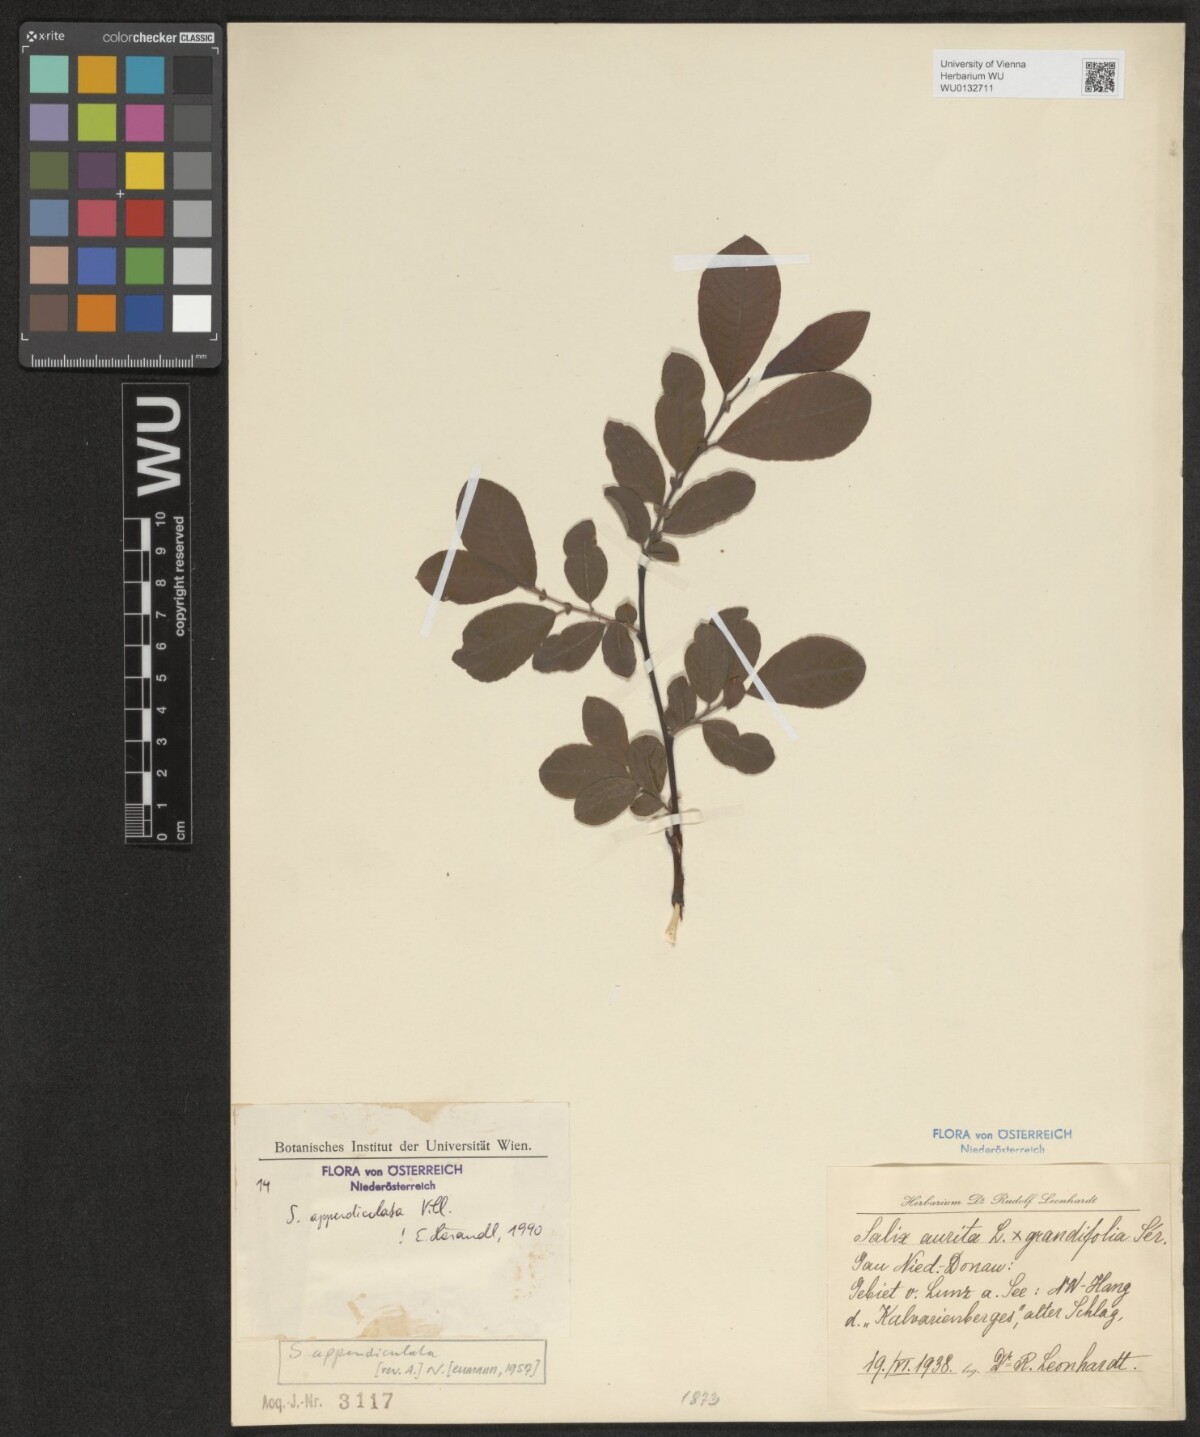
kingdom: Plantae
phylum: Tracheophyta
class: Magnoliopsida
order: Malpighiales
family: Salicaceae
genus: Salix
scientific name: Salix appendiculata
